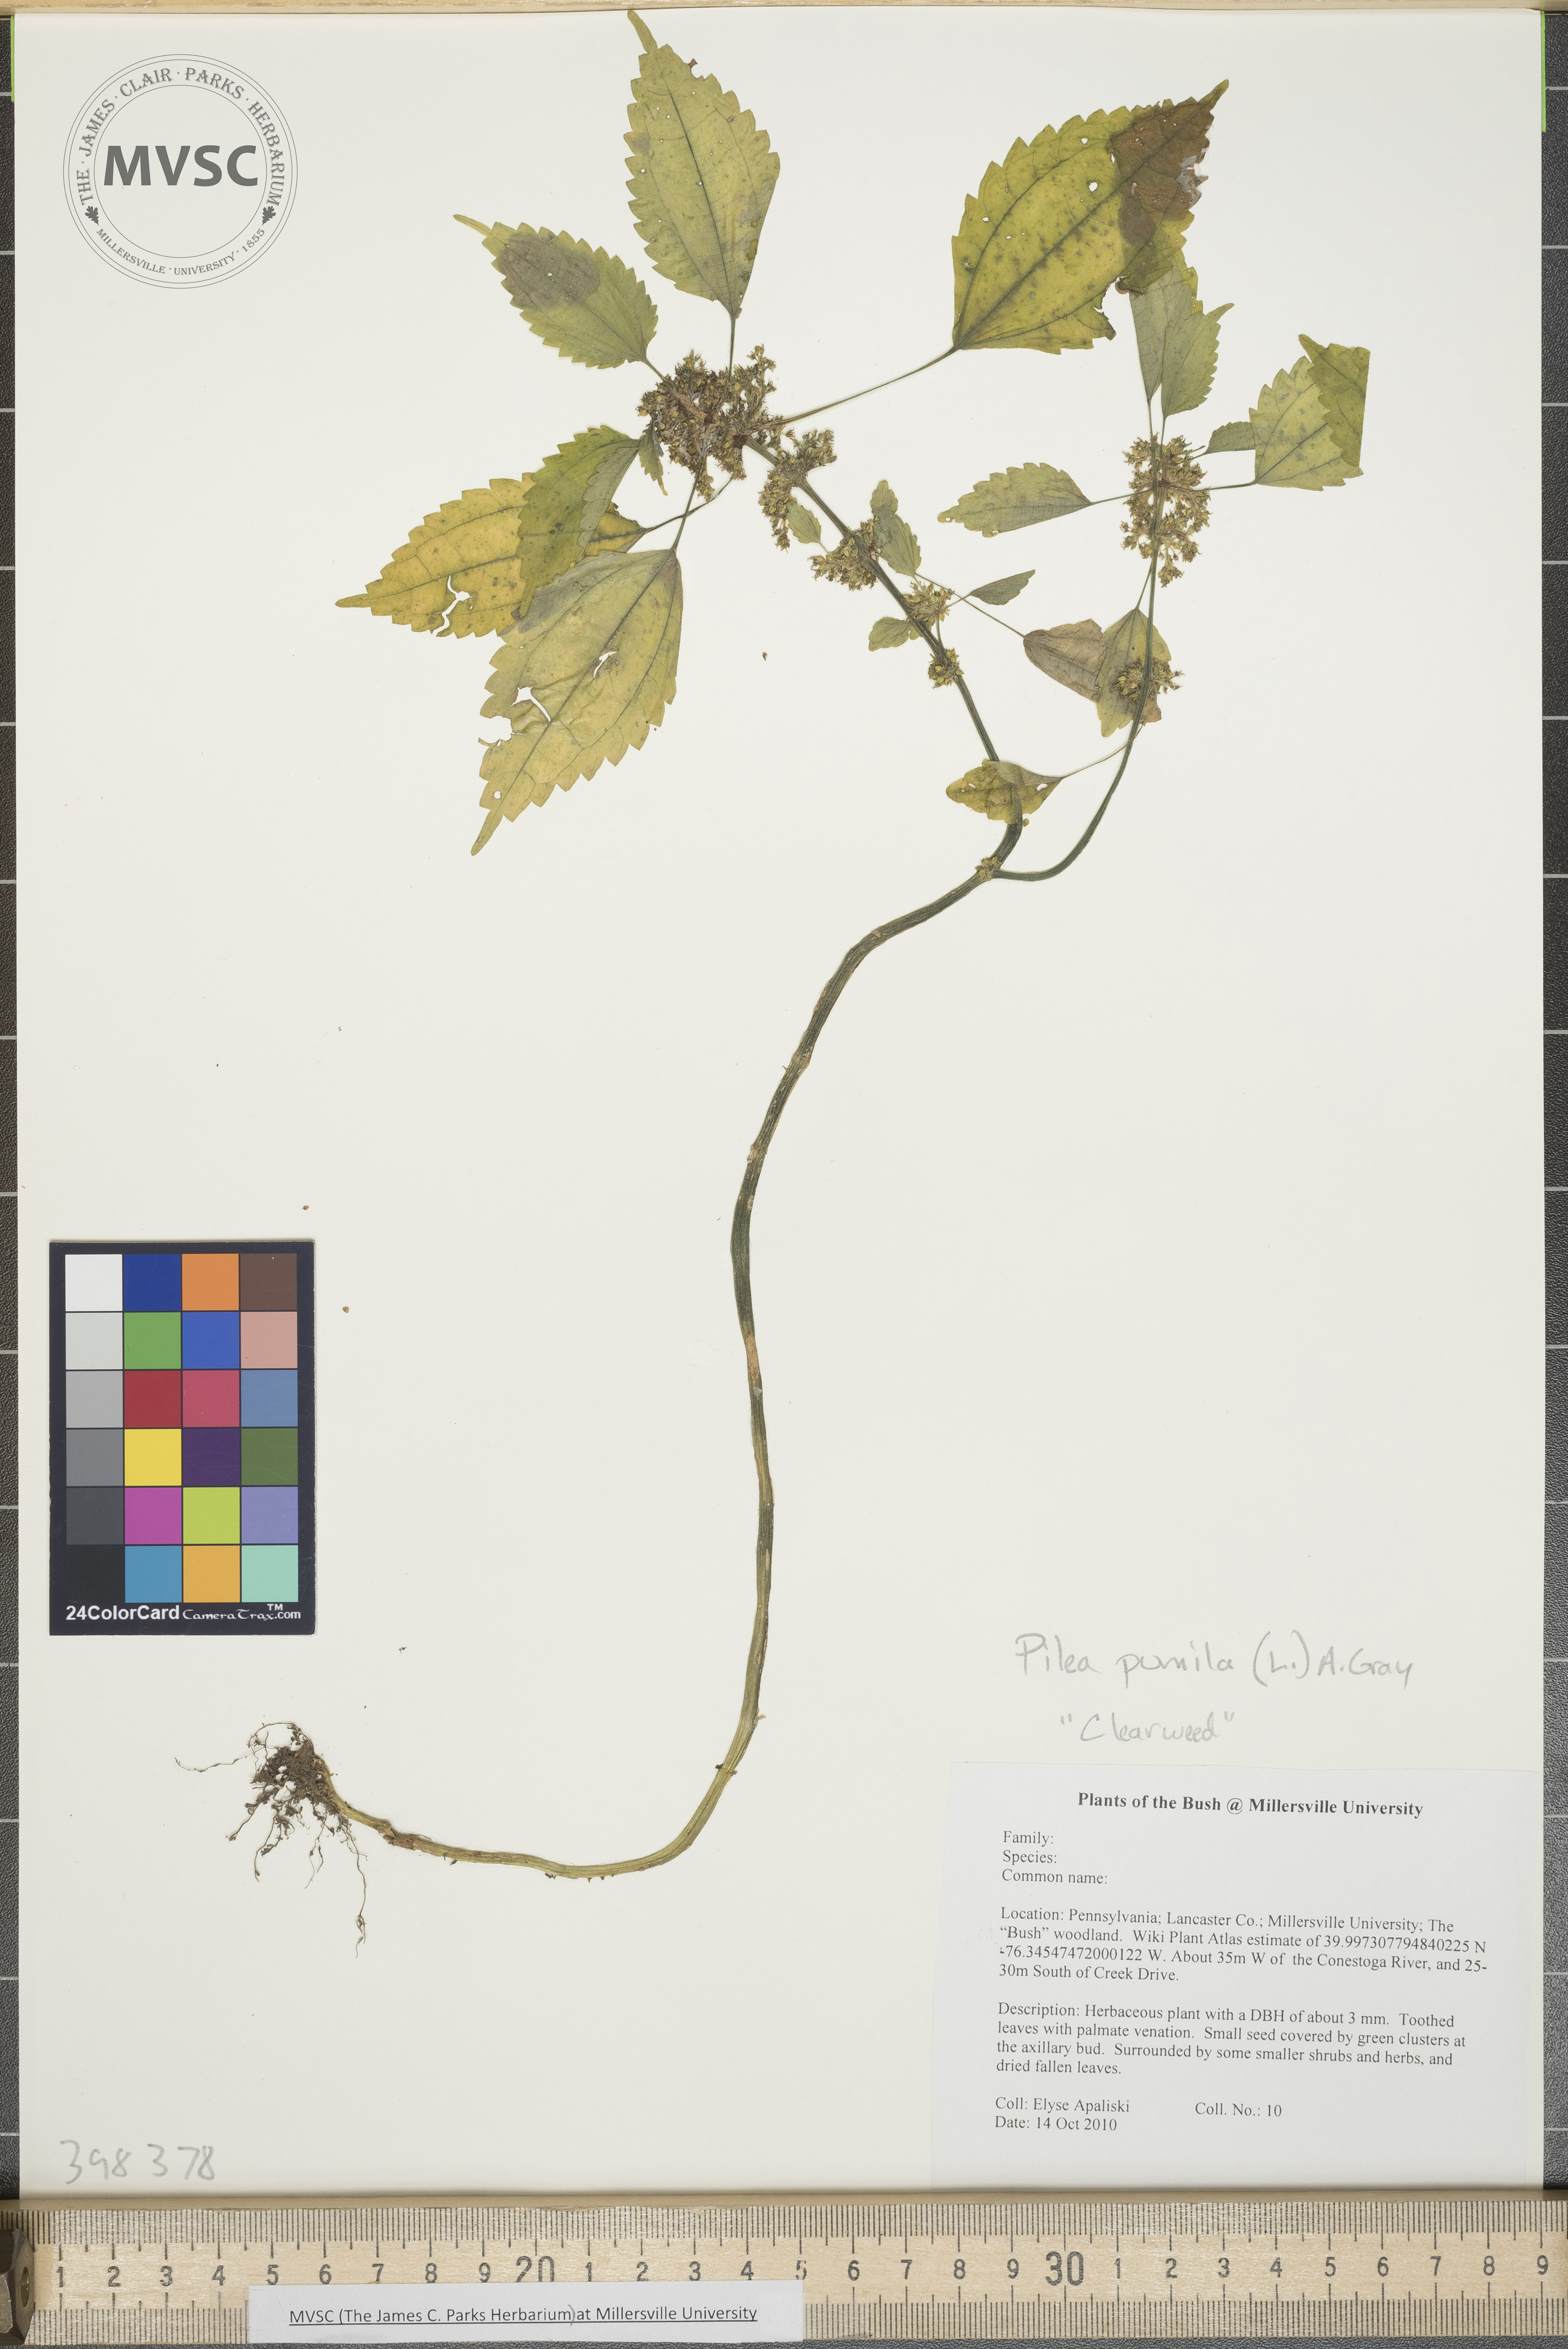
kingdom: Plantae
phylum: Tracheophyta
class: Magnoliopsida
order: Rosales
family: Urticaceae
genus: Pilea
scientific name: Pilea pumila
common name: Clearweed
